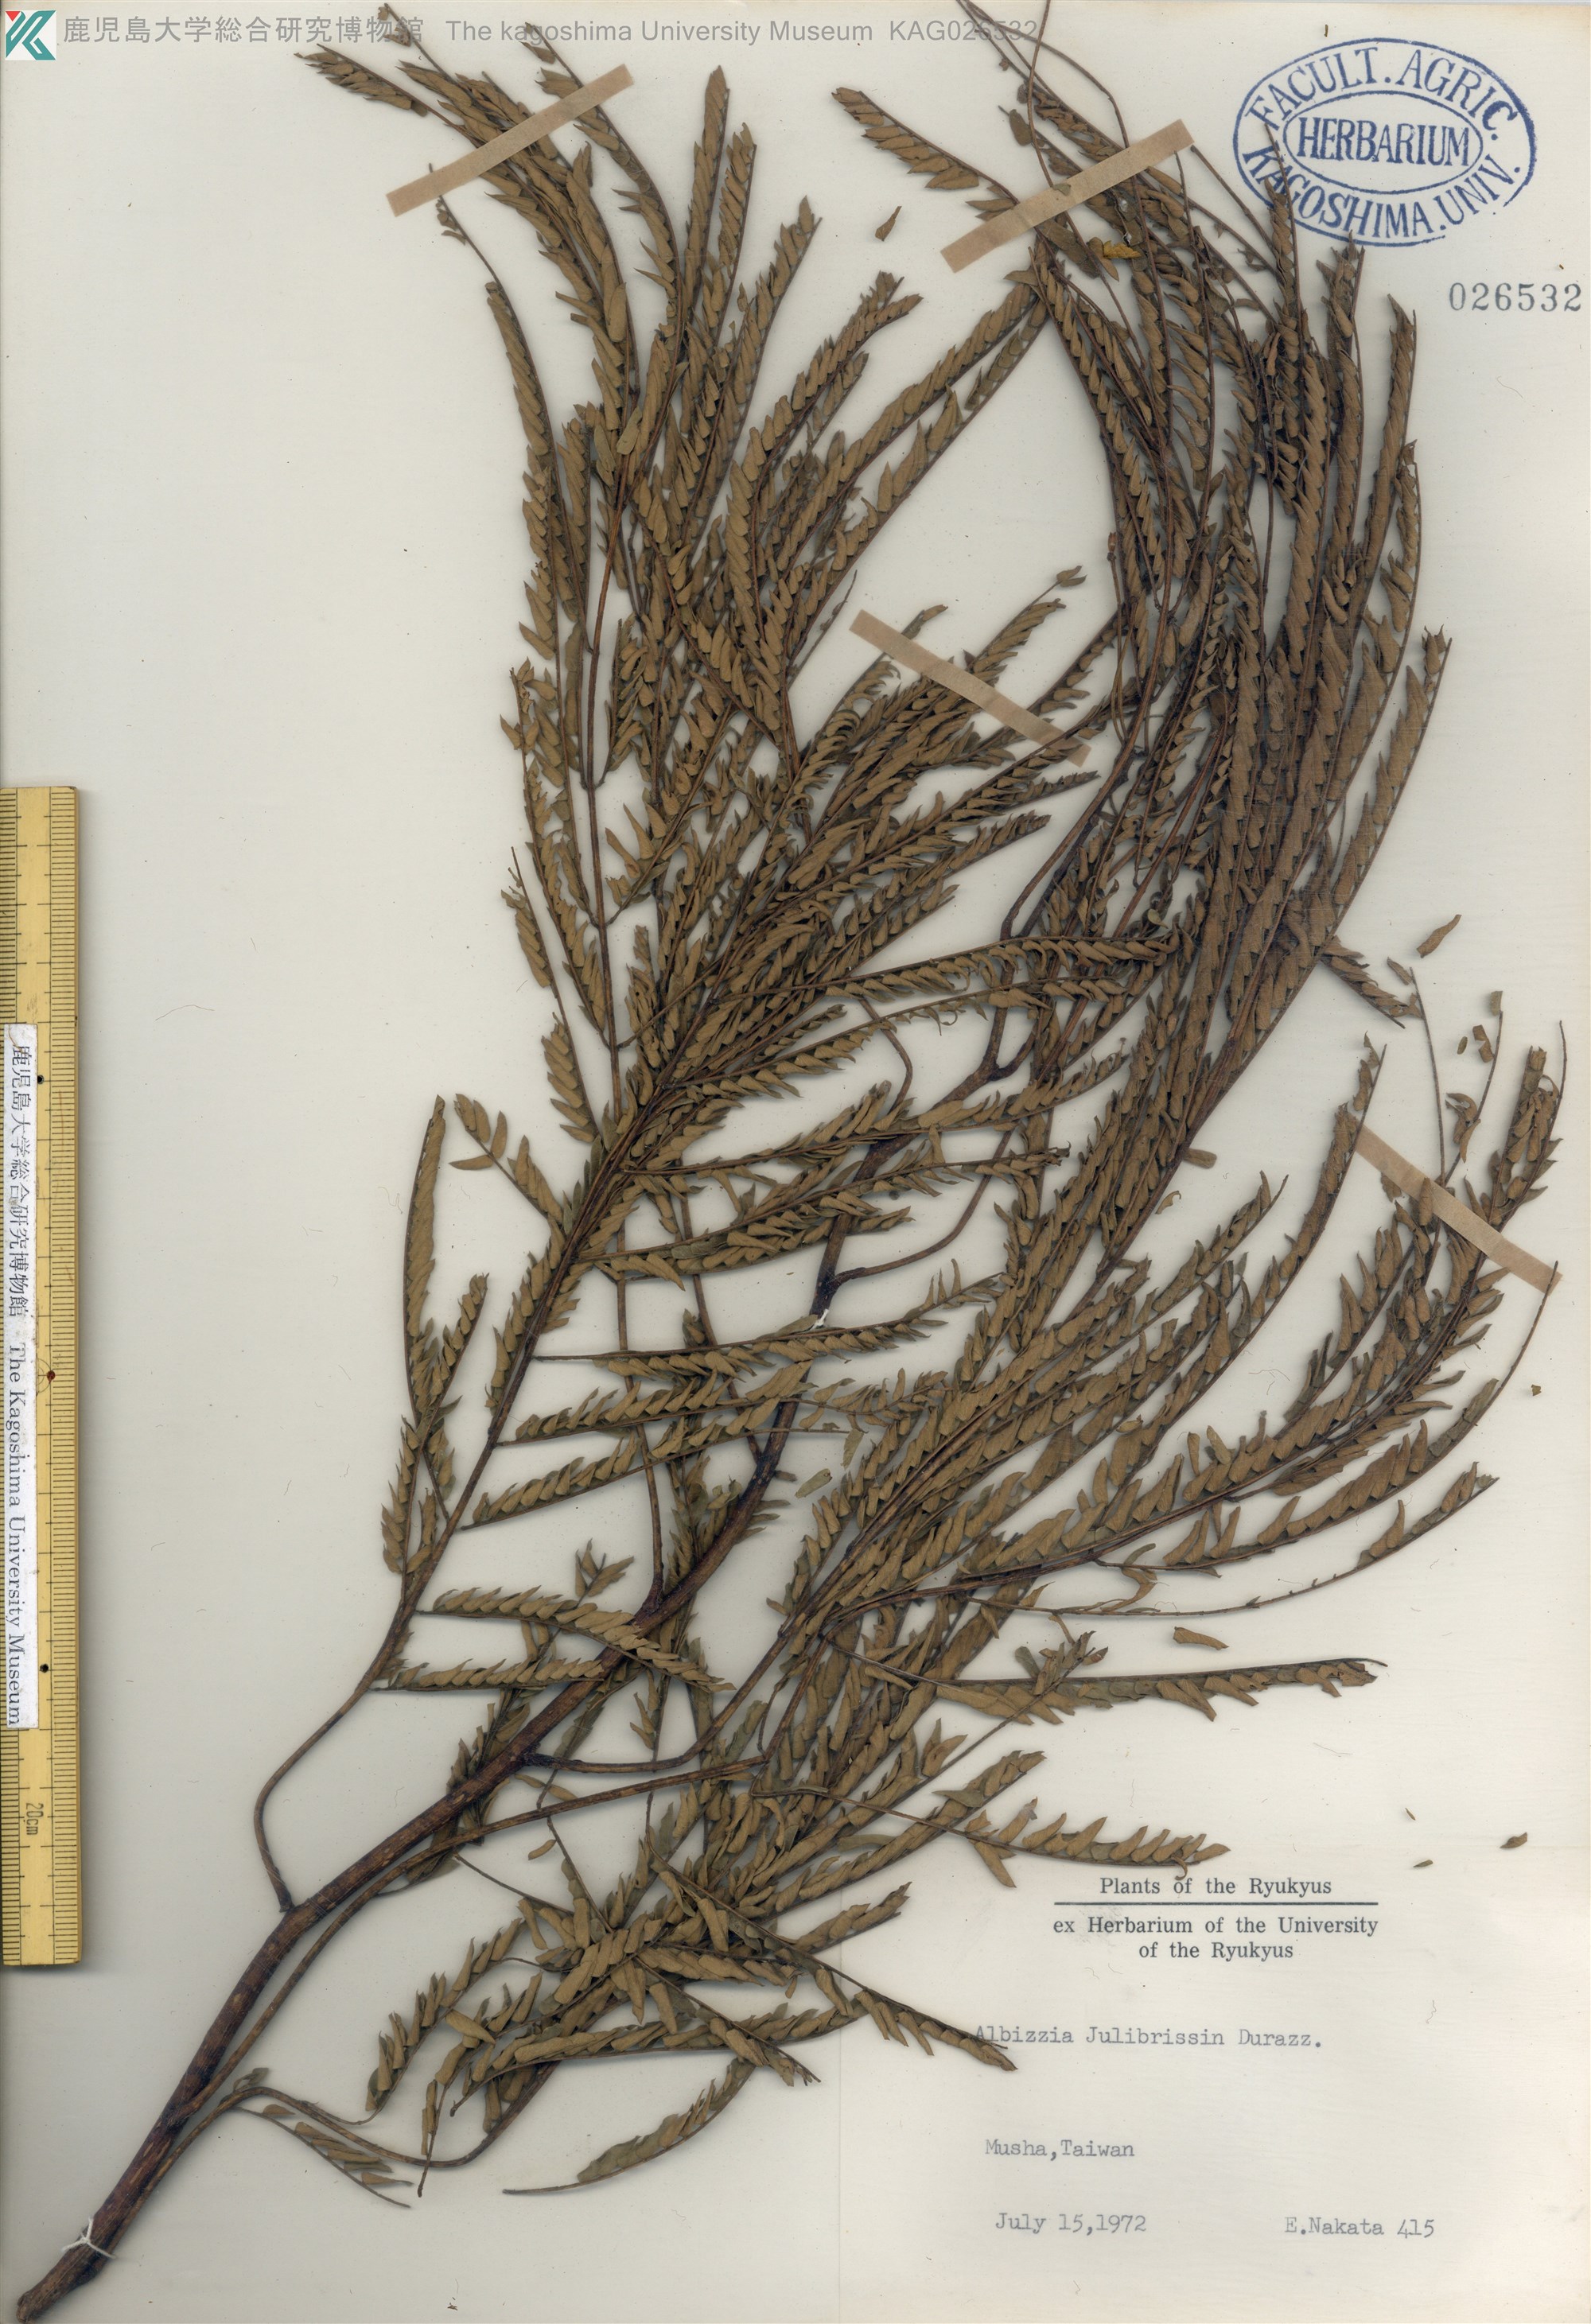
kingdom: Plantae
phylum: Tracheophyta
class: Magnoliopsida
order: Fabales
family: Fabaceae
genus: Albizia
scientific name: Albizia julibrissin
